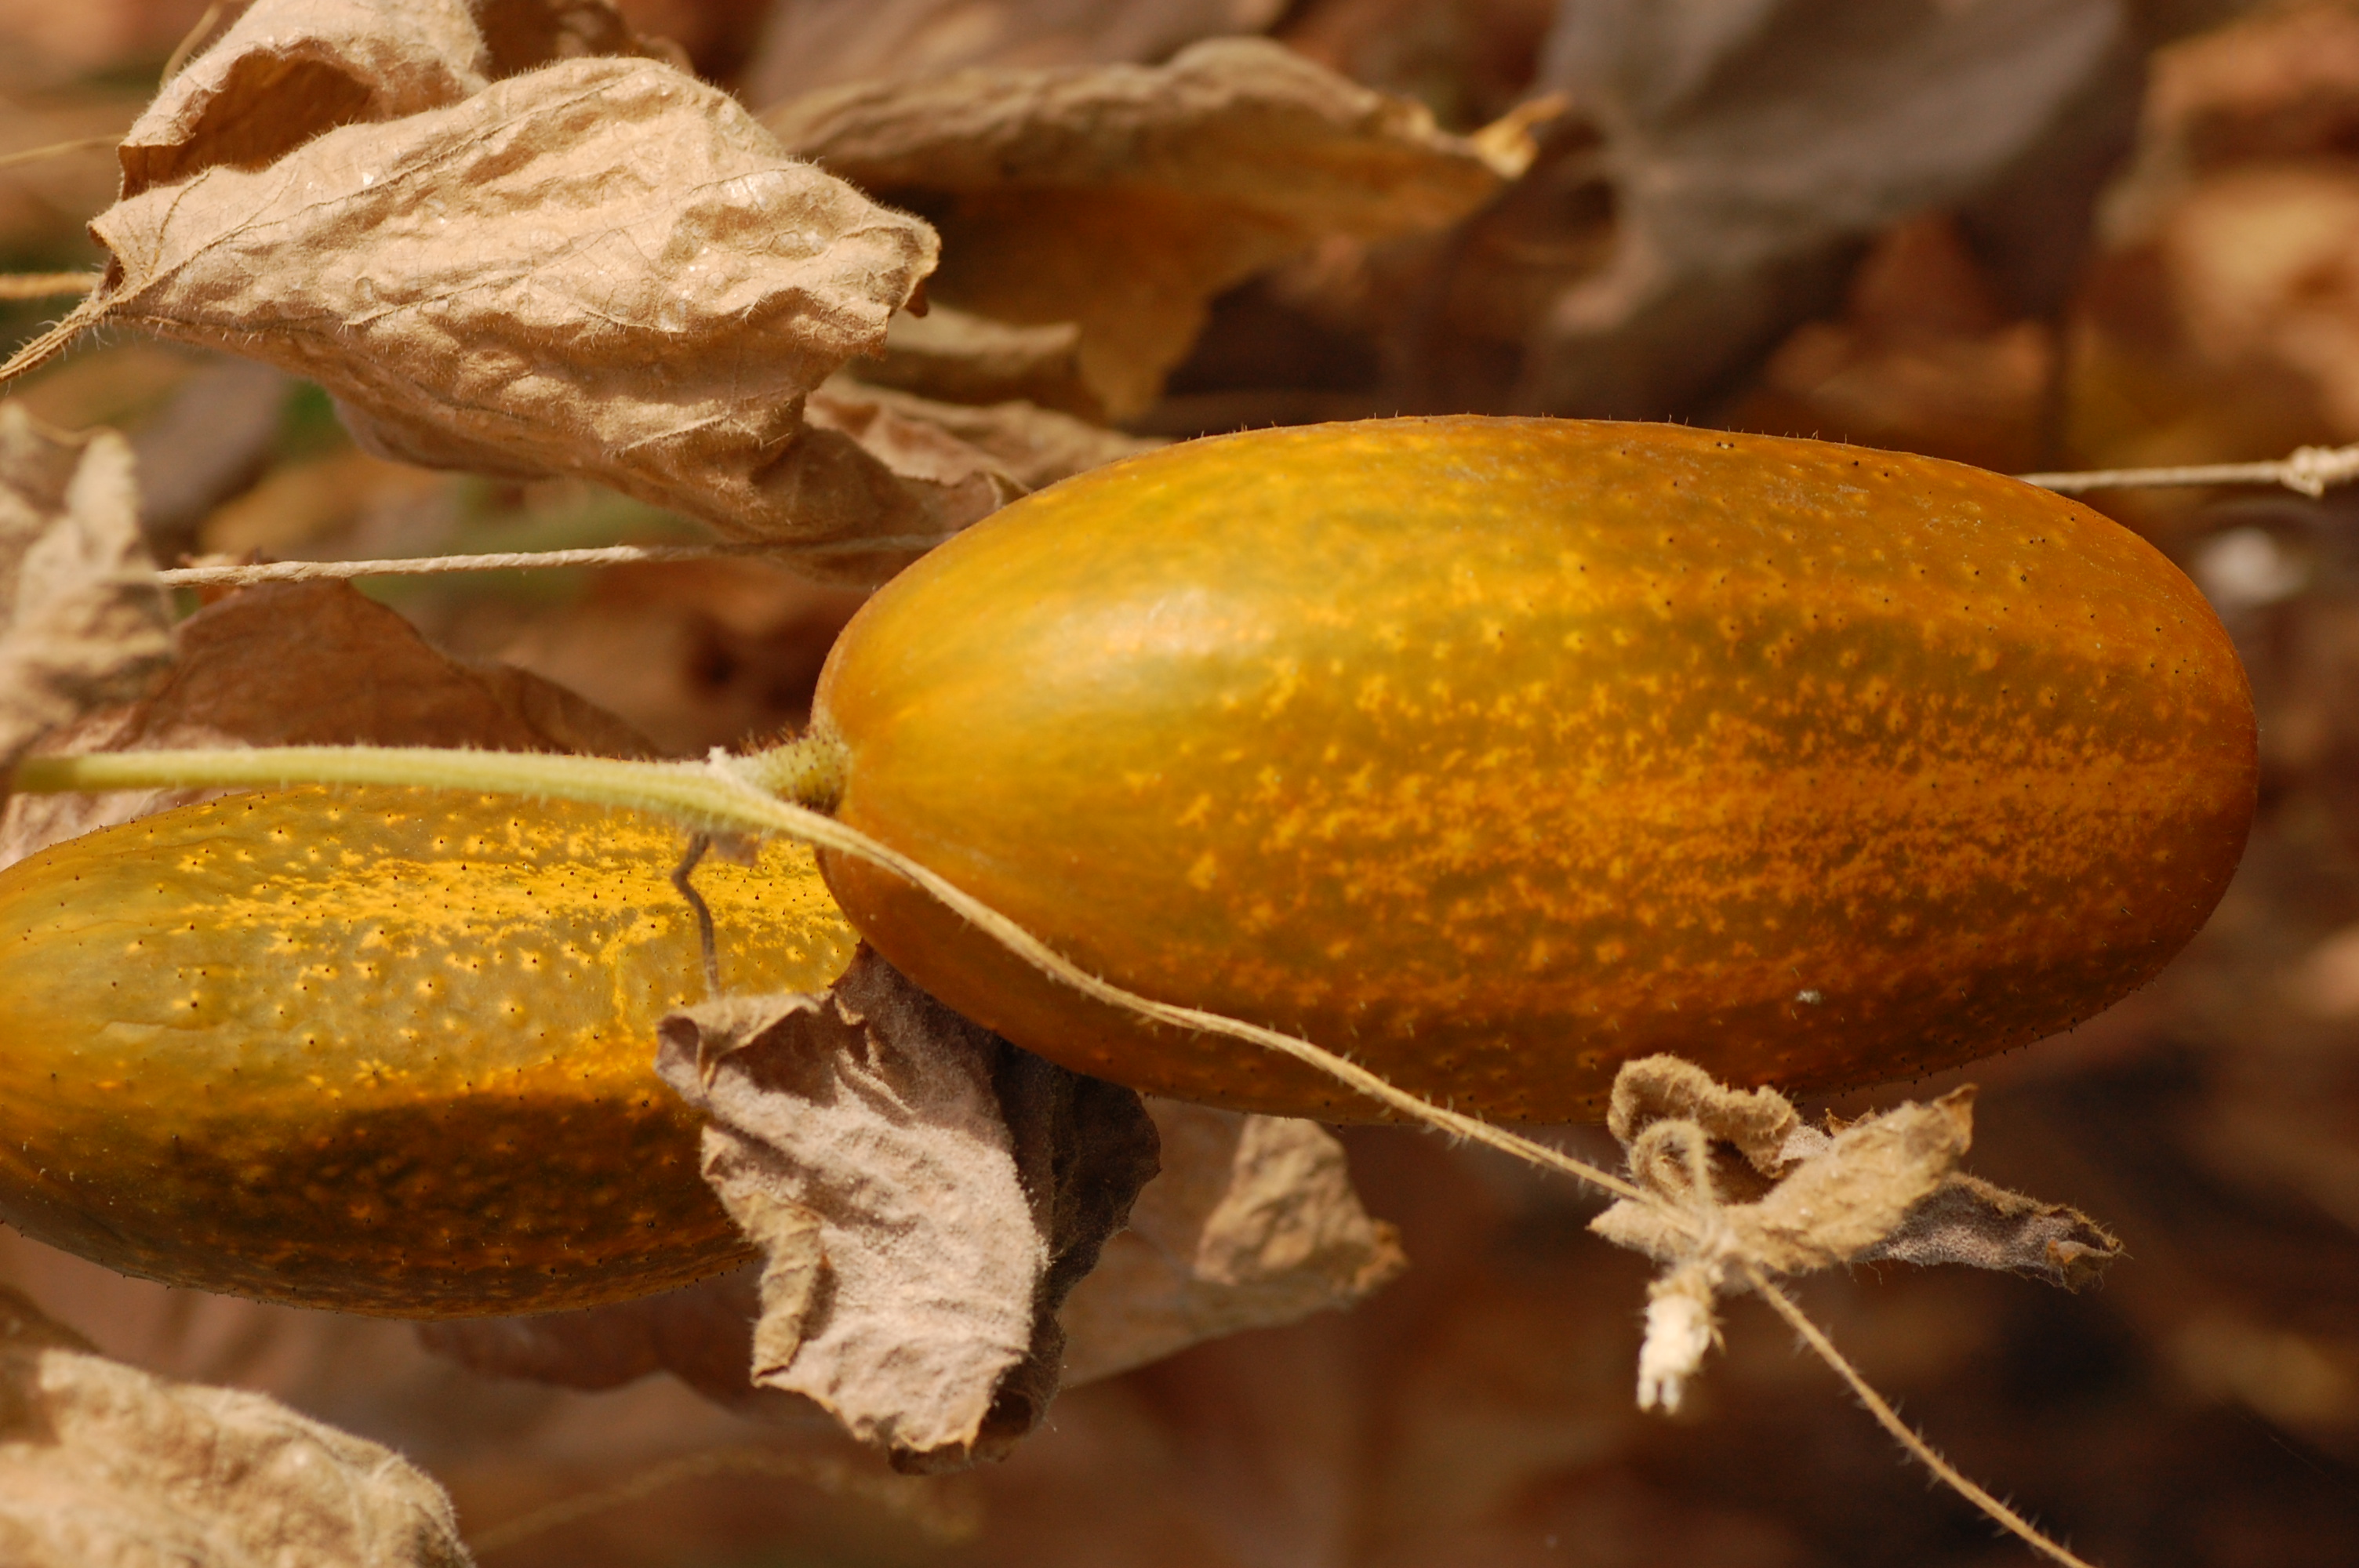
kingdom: Plantae
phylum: Tracheophyta
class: Magnoliopsida
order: Cucurbitales
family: Cucurbitaceae
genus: Cucumis
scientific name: Cucumis sativus
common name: Cucumber
